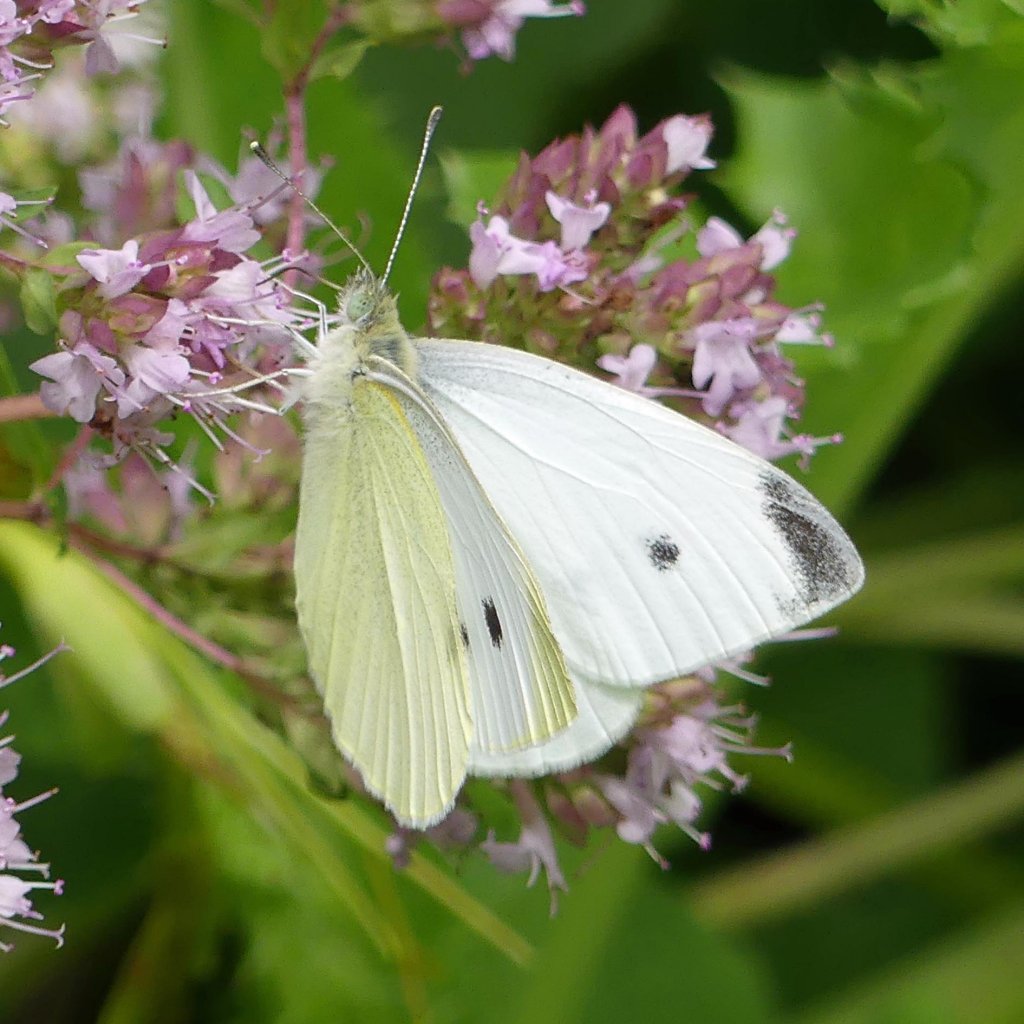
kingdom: Animalia
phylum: Arthropoda
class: Insecta
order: Lepidoptera
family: Pieridae
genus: Pieris
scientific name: Pieris rapae
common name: Cabbage White
